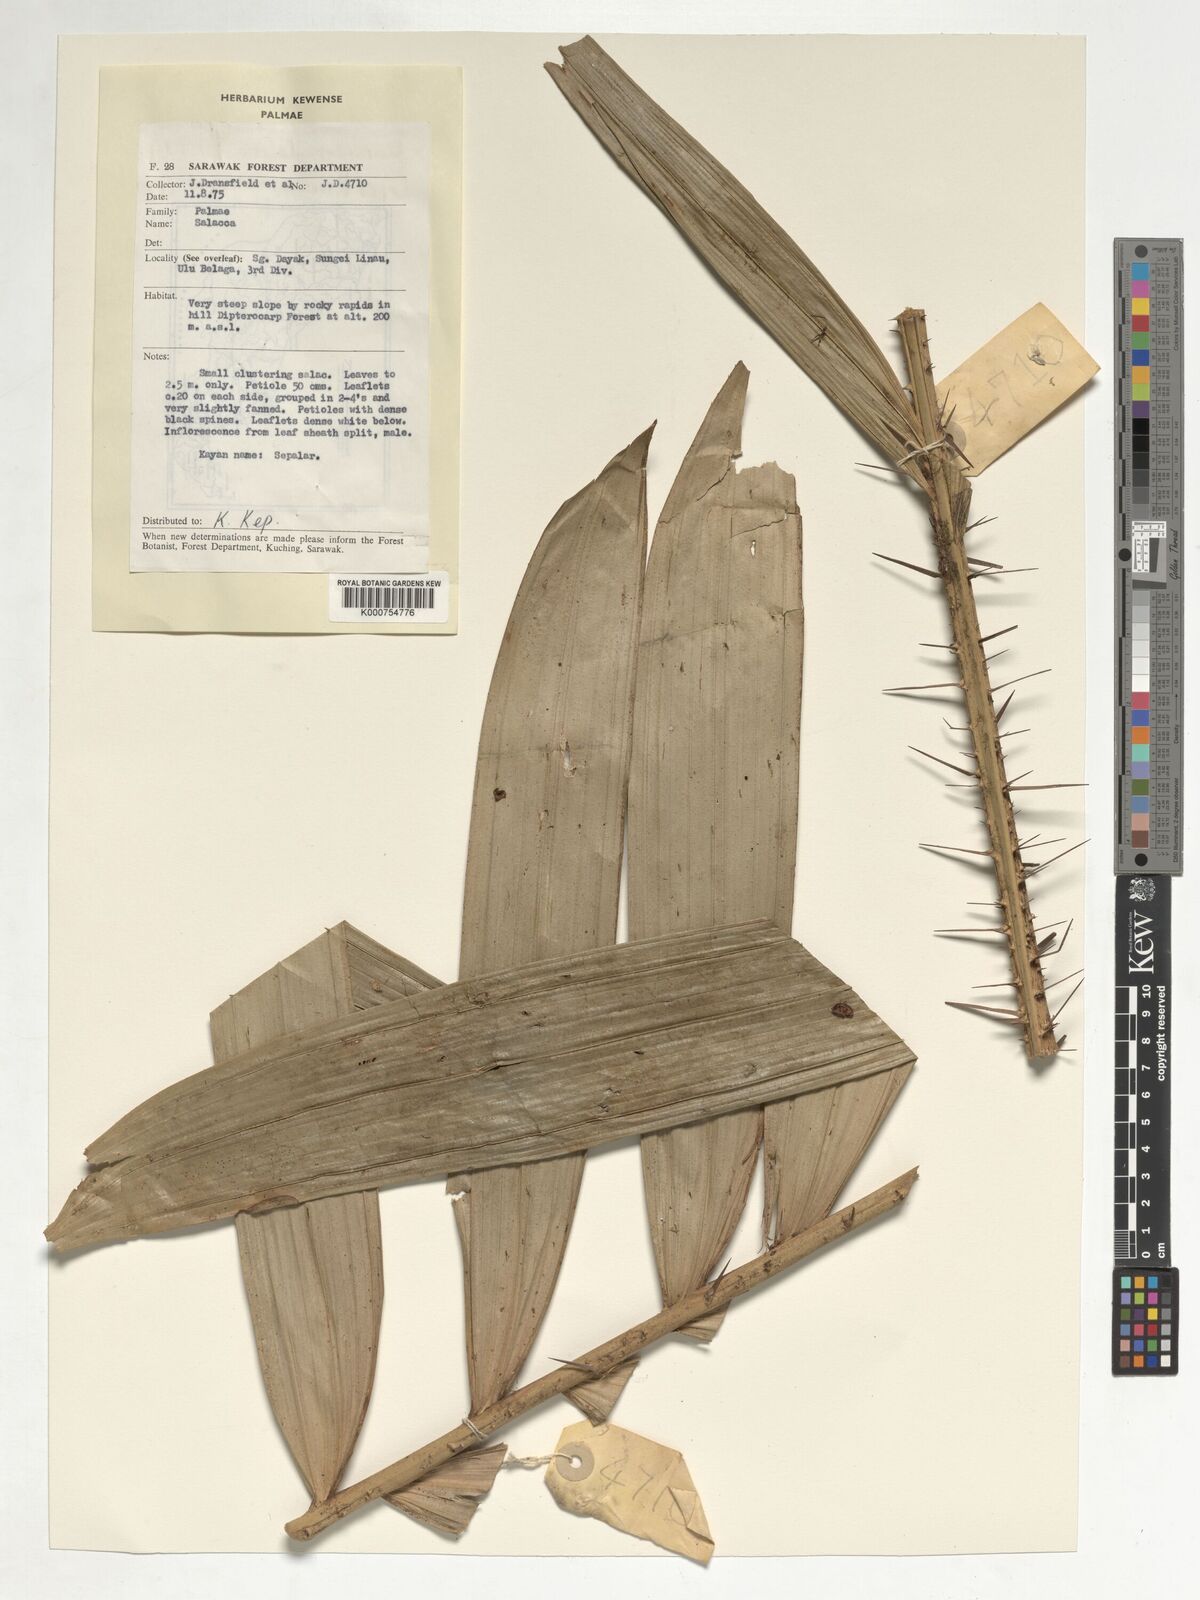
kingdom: Plantae
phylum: Tracheophyta
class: Liliopsida
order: Arecales
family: Arecaceae
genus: Salacca
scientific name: Salacca
